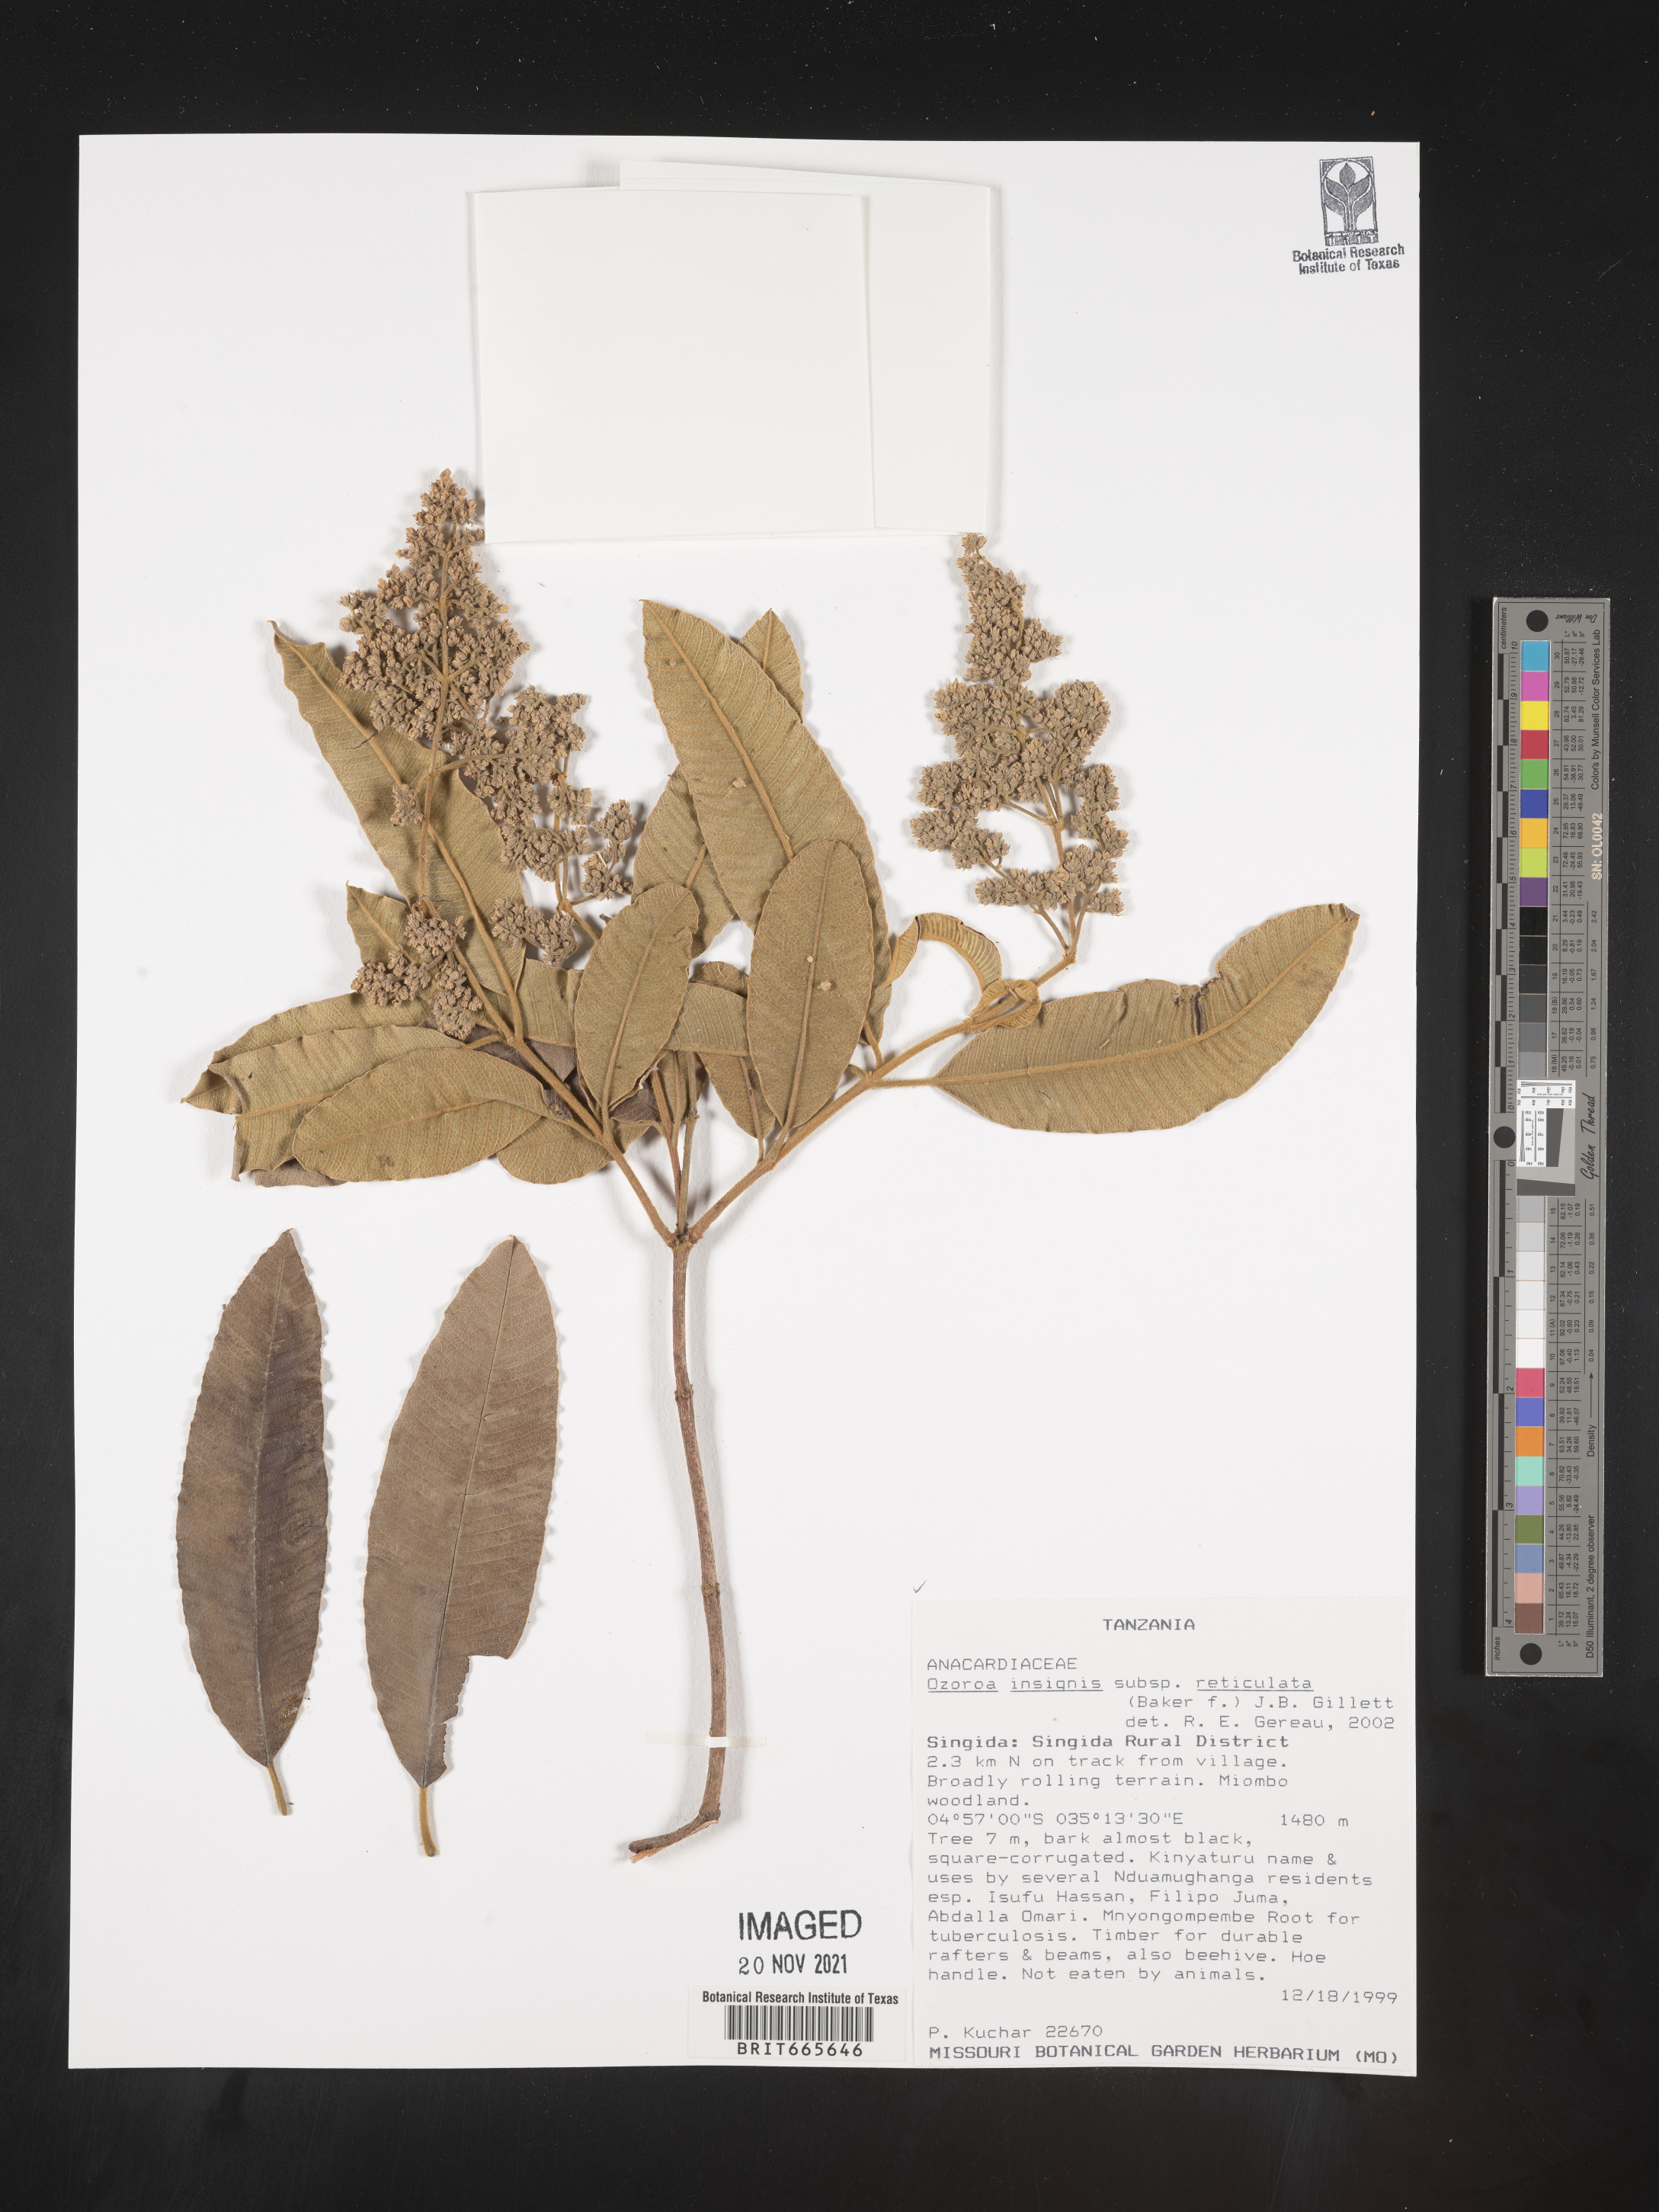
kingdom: Plantae
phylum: Tracheophyta
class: Magnoliopsida
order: Sapindales
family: Anacardiaceae
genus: Ozoroa
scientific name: Ozoroa
